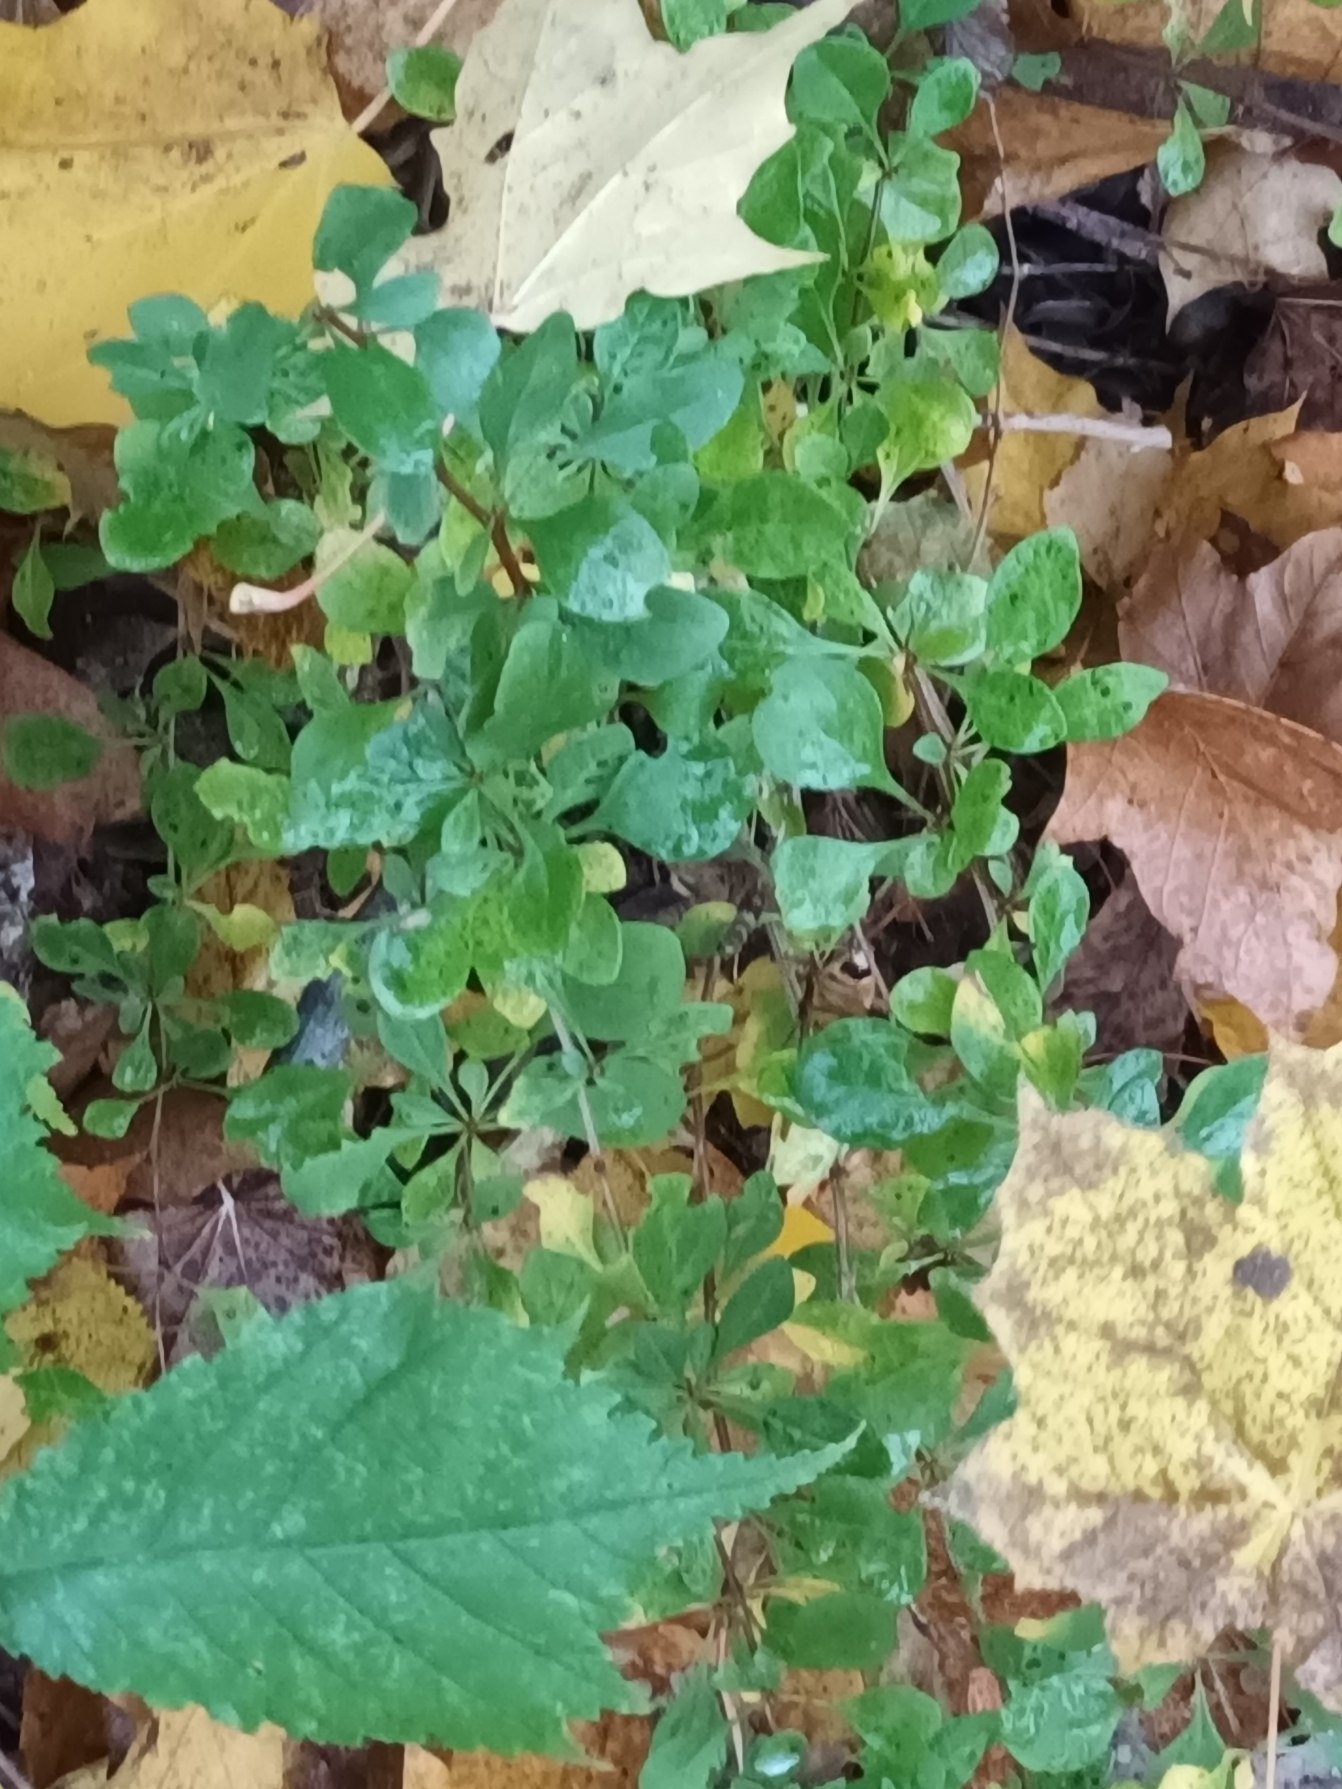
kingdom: Plantae
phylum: Tracheophyta
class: Magnoliopsida
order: Ranunculales
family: Berberidaceae
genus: Berberis
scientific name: Berberis thunbergii
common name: Hæk-berberis
